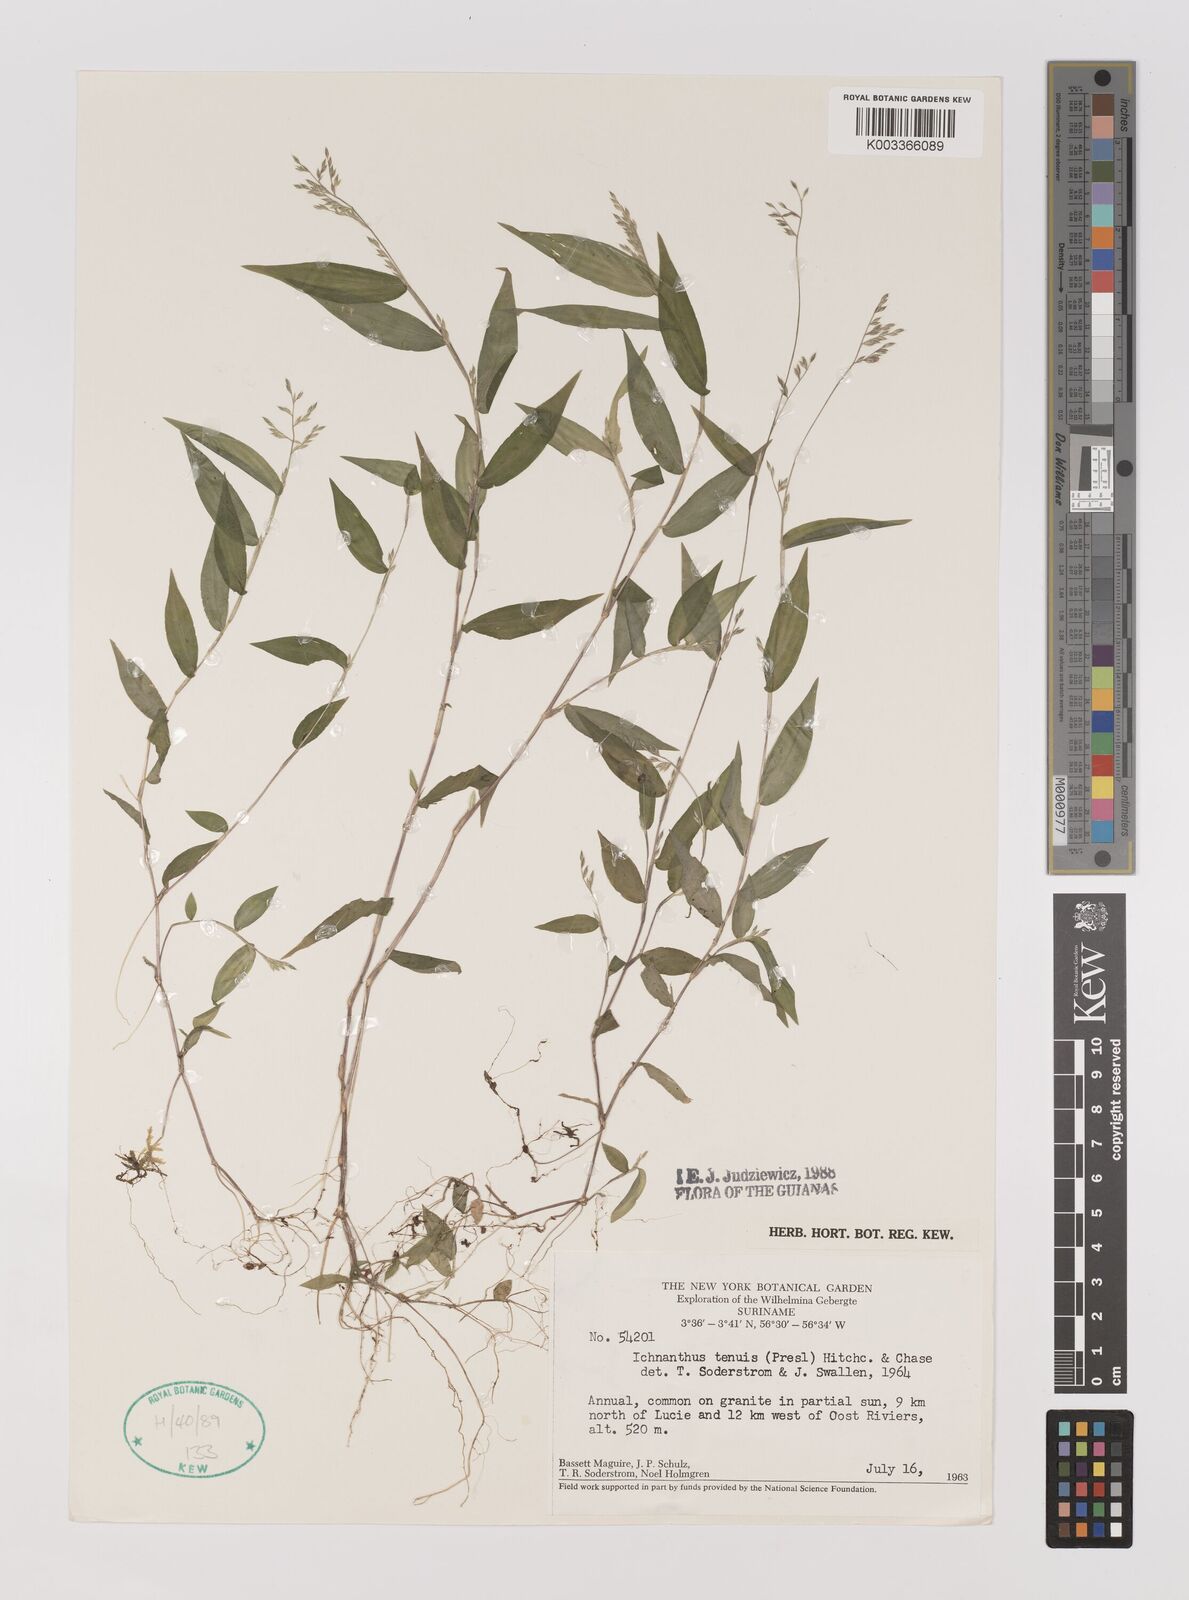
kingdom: Plantae
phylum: Tracheophyta
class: Liliopsida
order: Poales
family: Poaceae
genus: Ichnanthus
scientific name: Ichnanthus tenuis
